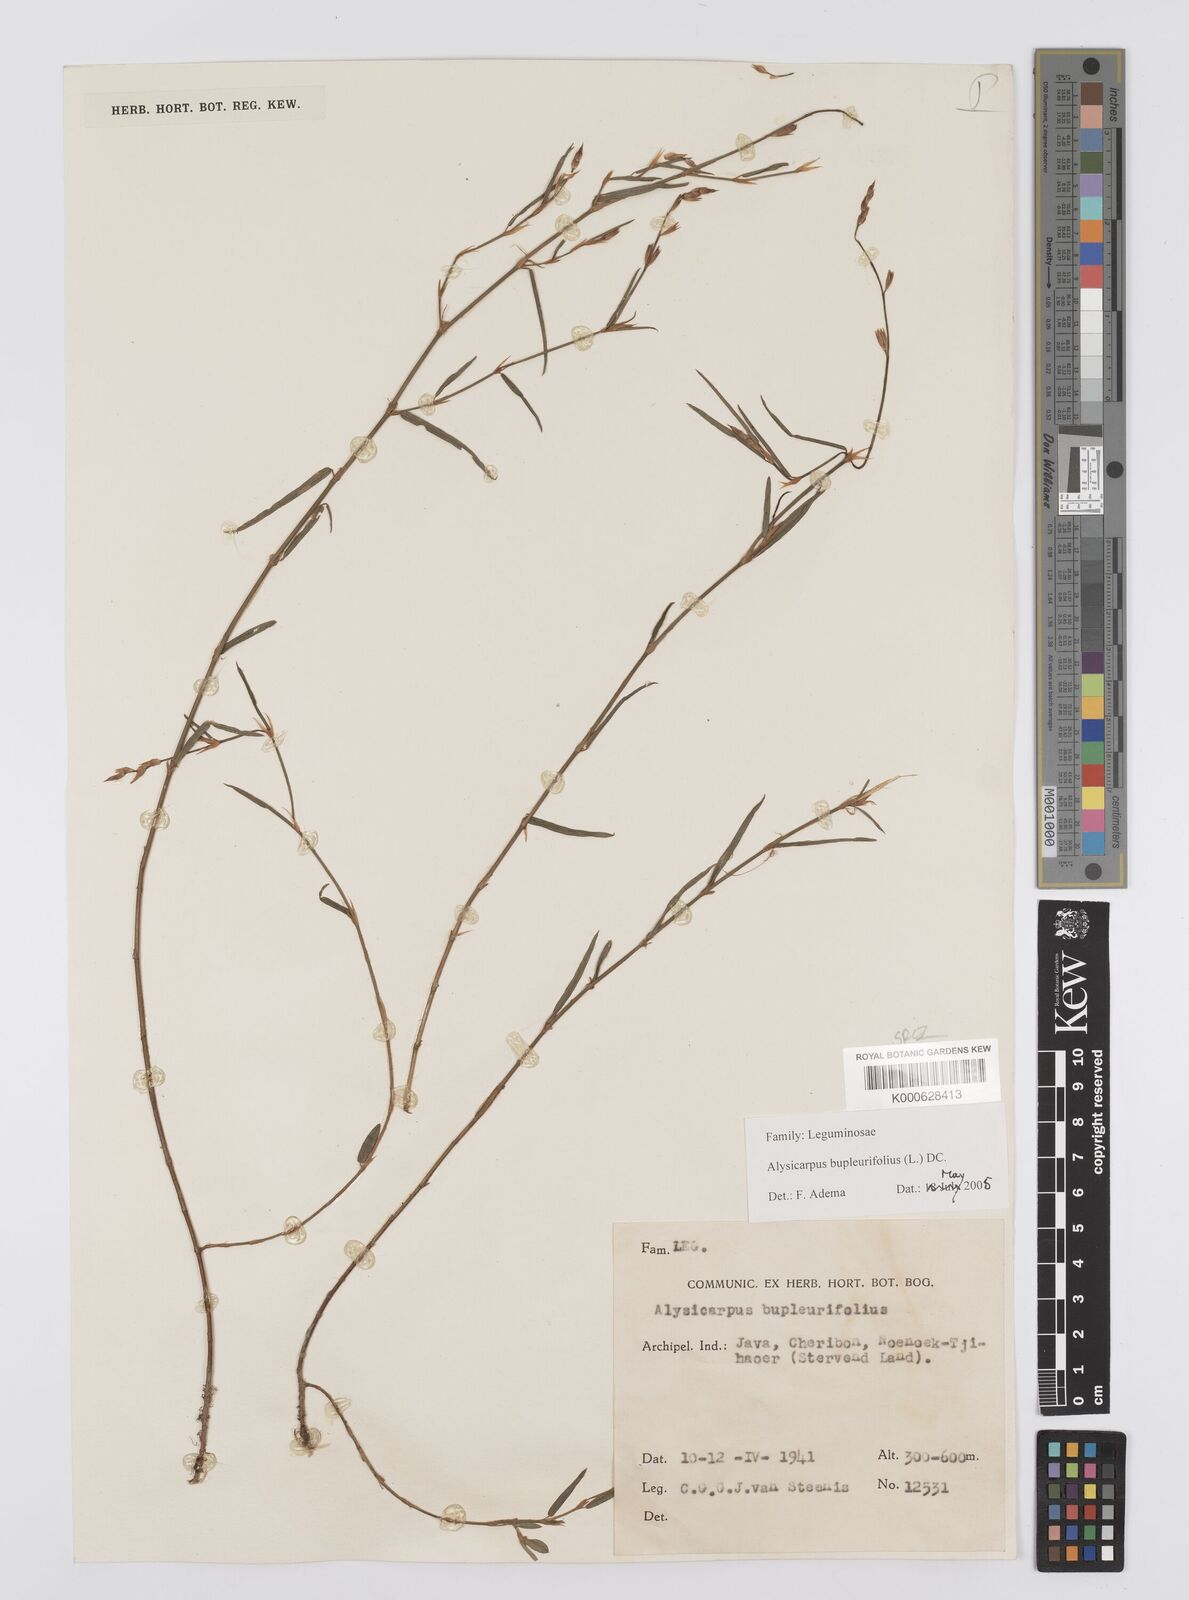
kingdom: Plantae
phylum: Tracheophyta
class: Magnoliopsida
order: Fabales
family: Fabaceae
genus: Alysicarpus
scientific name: Alysicarpus bupleurifolius
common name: Sweet alys
